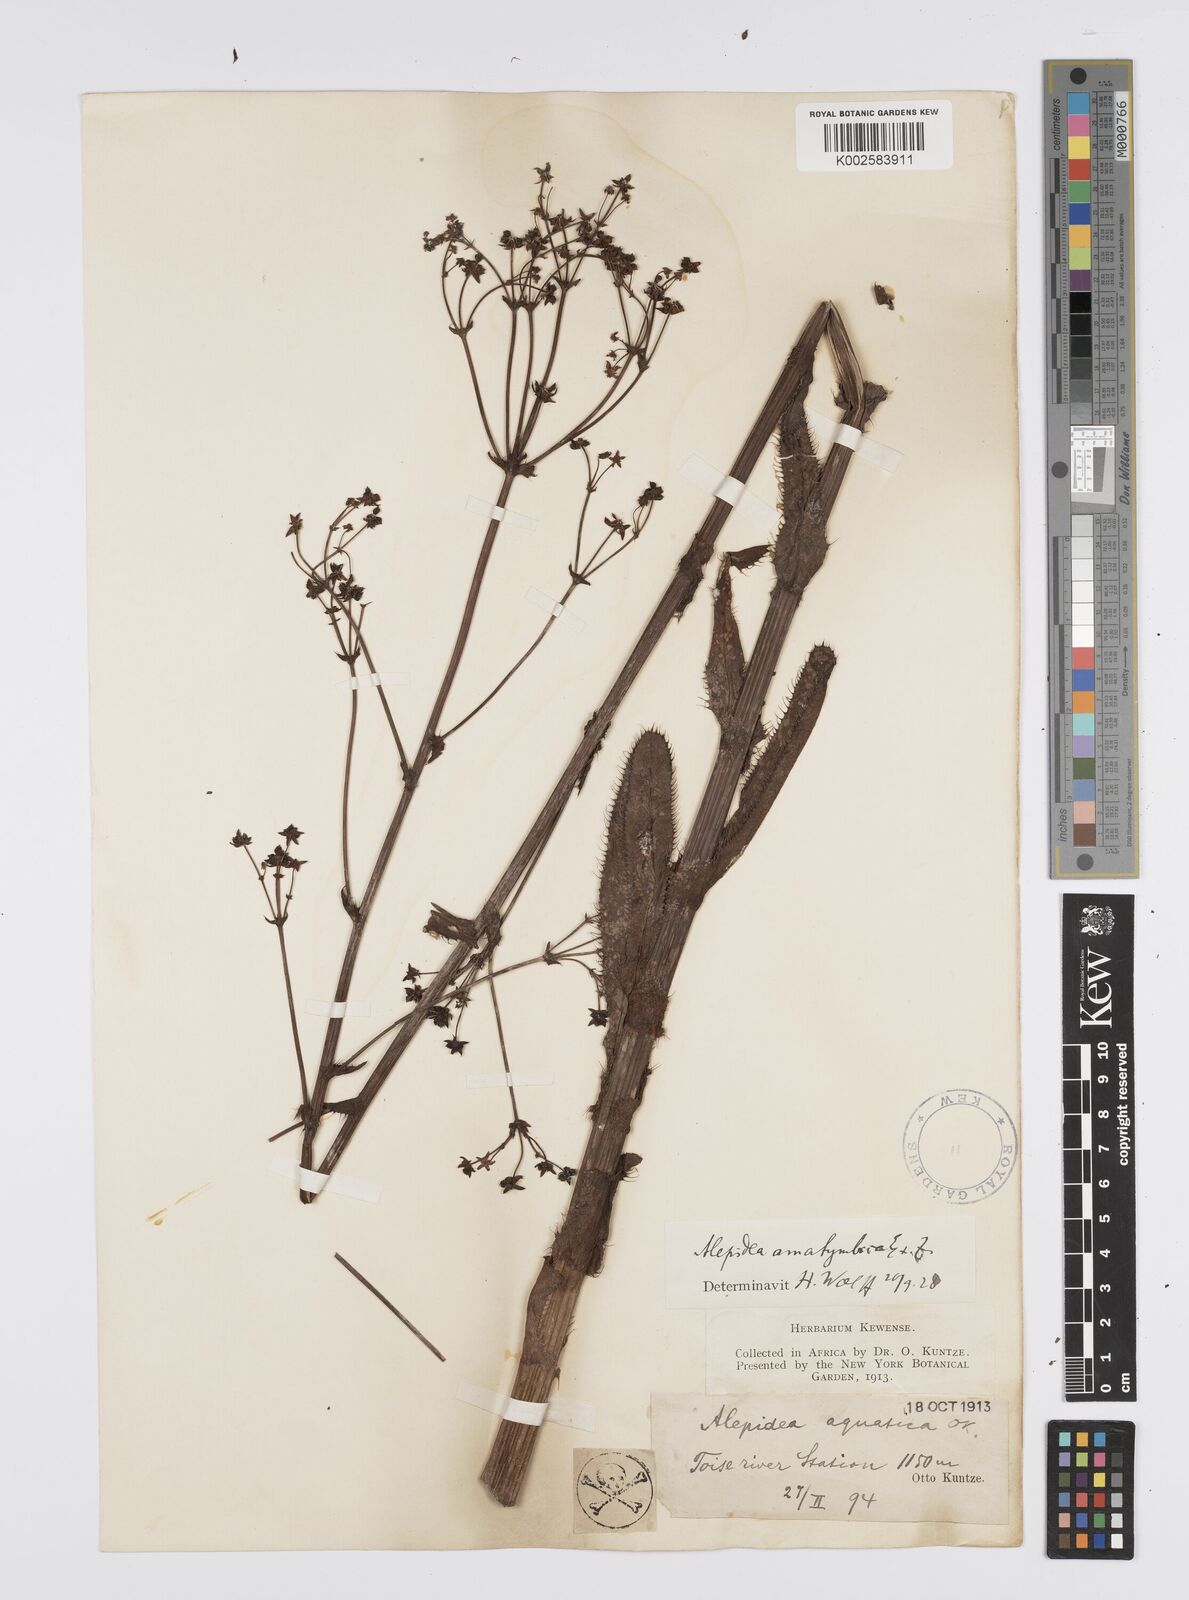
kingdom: Plantae
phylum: Tracheophyta
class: Magnoliopsida
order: Apiales
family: Apiaceae
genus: Alepidea
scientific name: Alepidea amatymbica
